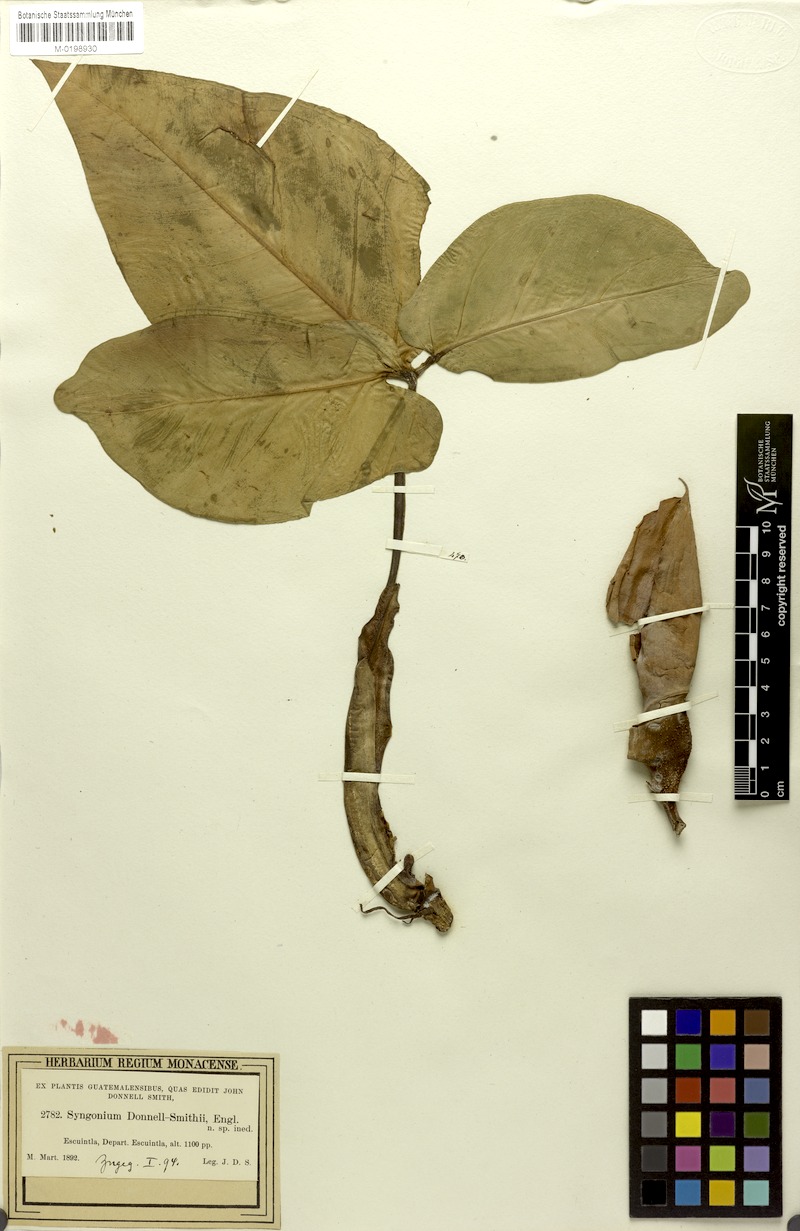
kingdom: Plantae
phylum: Tracheophyta
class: Liliopsida
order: Alismatales
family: Araceae
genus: Syngonium
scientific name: Syngonium salvadorense
